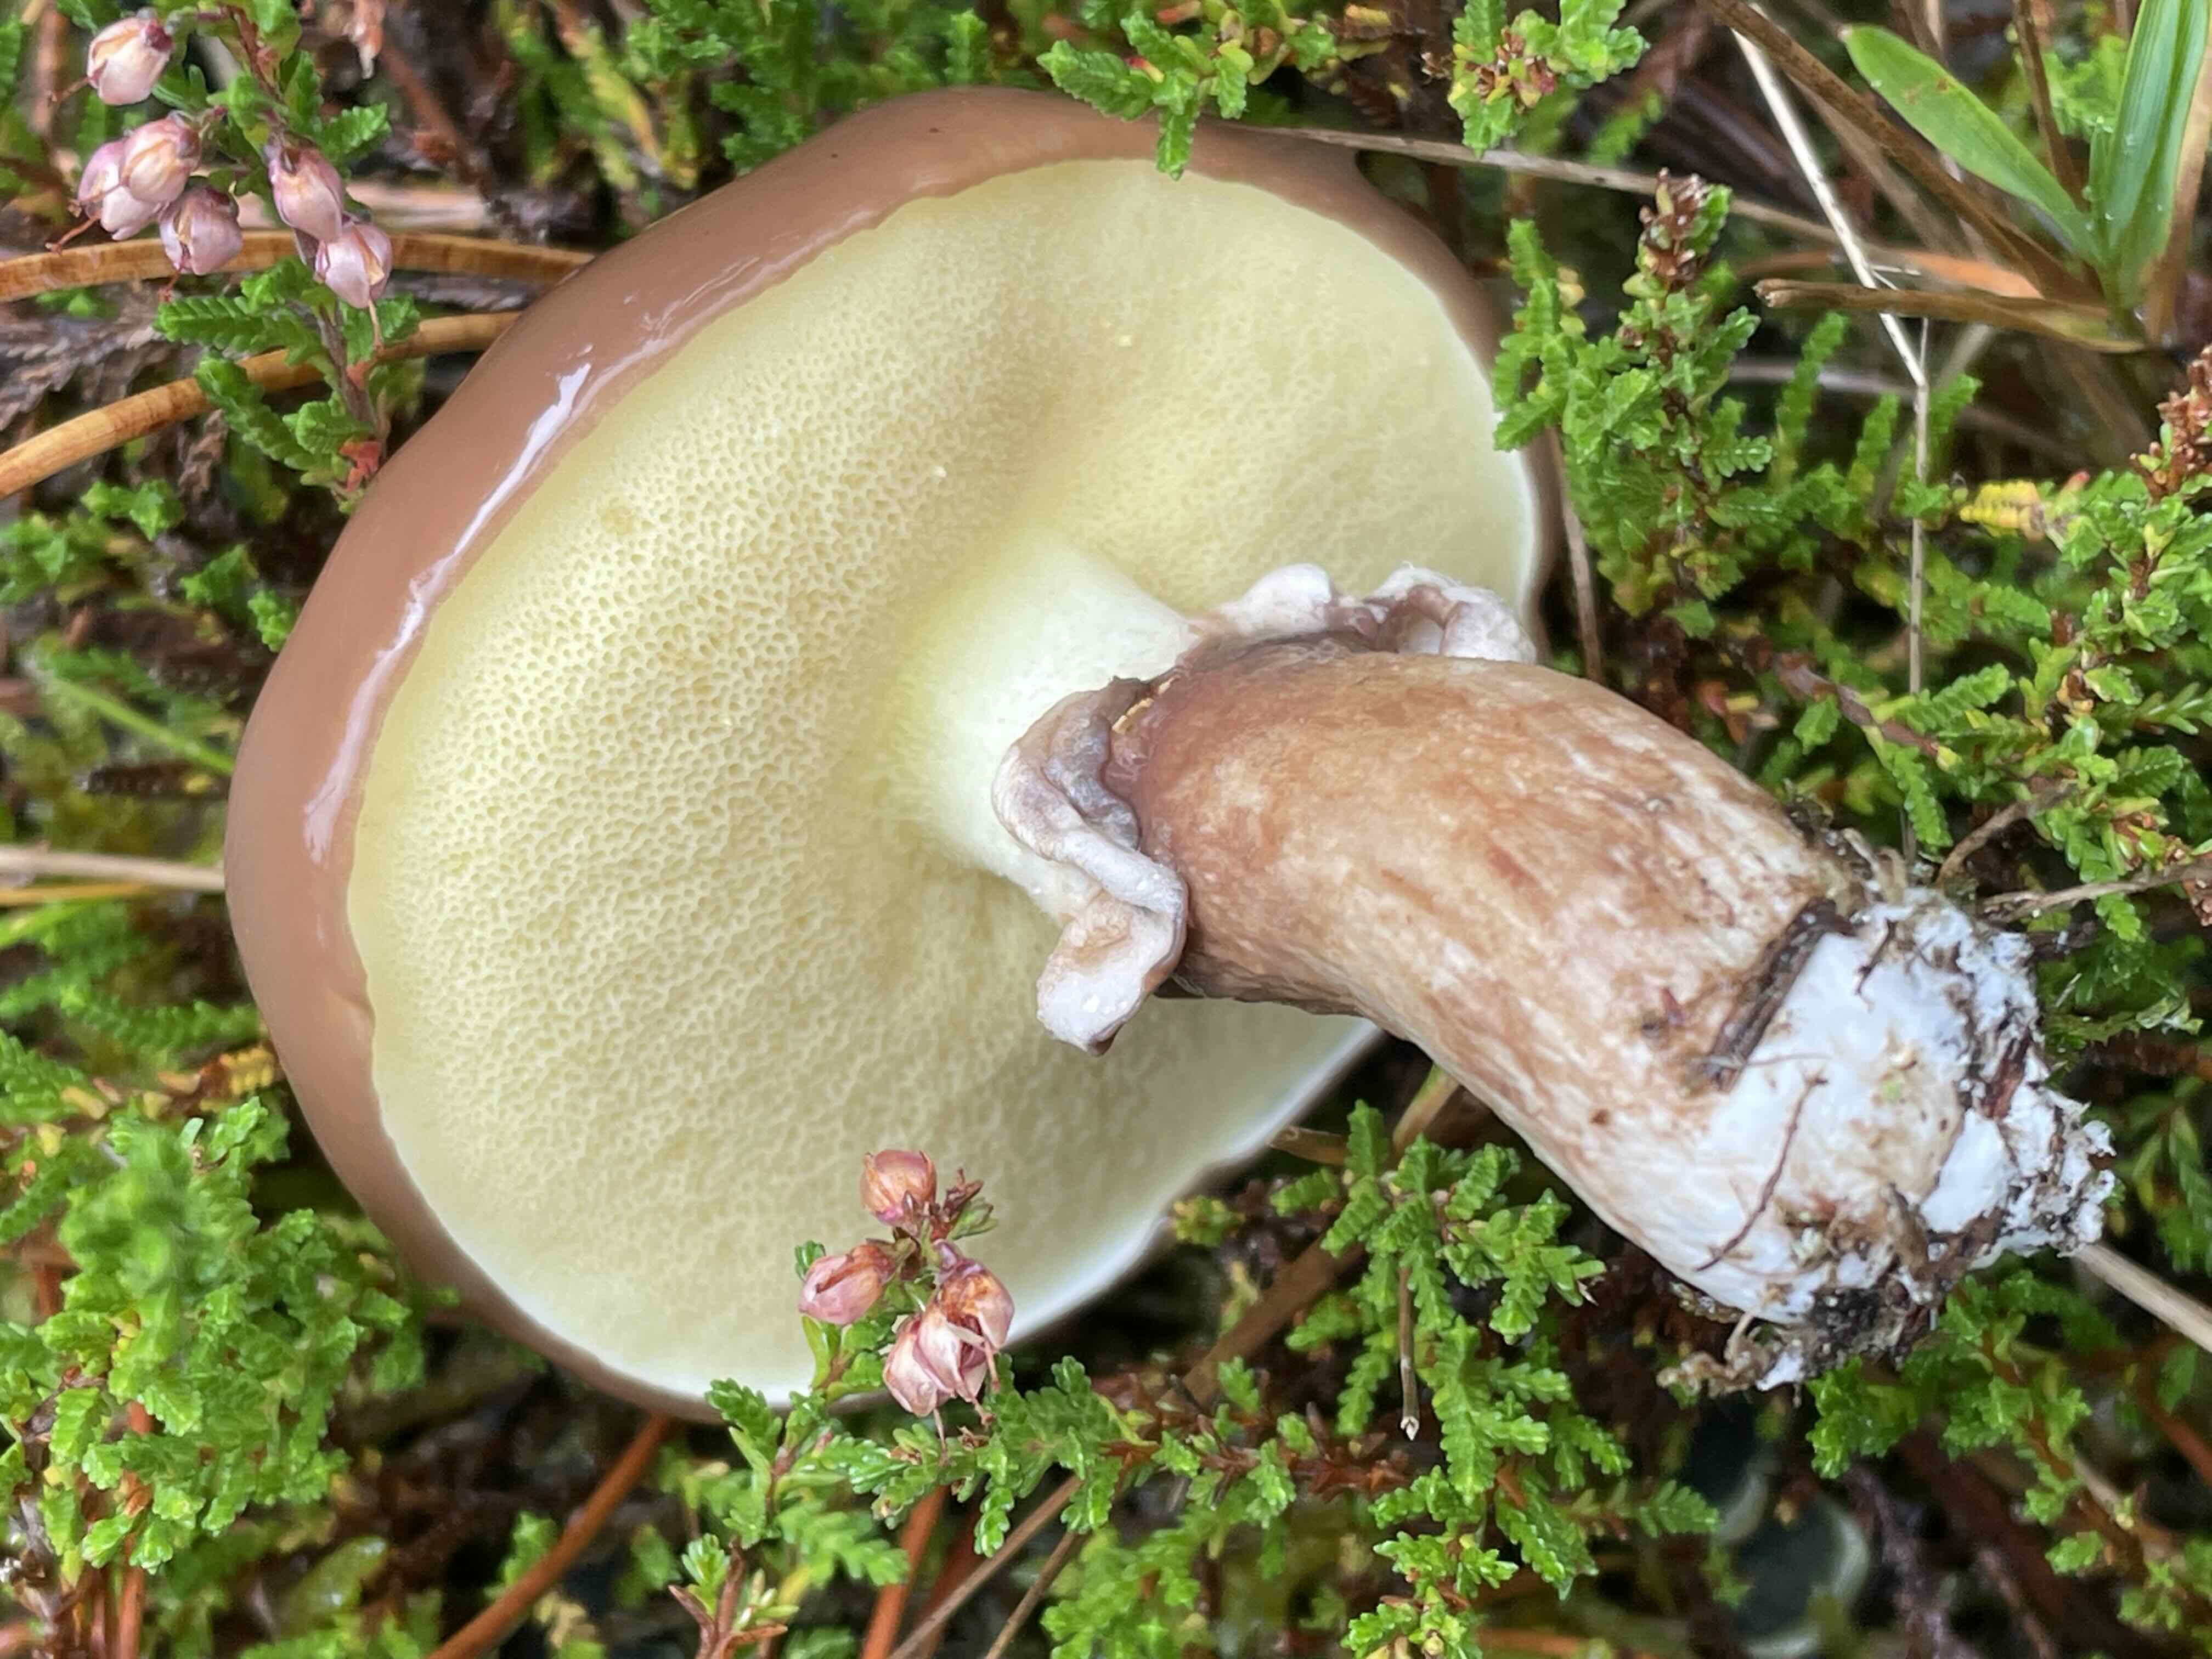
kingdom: Fungi
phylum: Basidiomycota
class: Agaricomycetes
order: Boletales
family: Suillaceae
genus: Suillus
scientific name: Suillus luteus
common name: brungul slimrørhat
